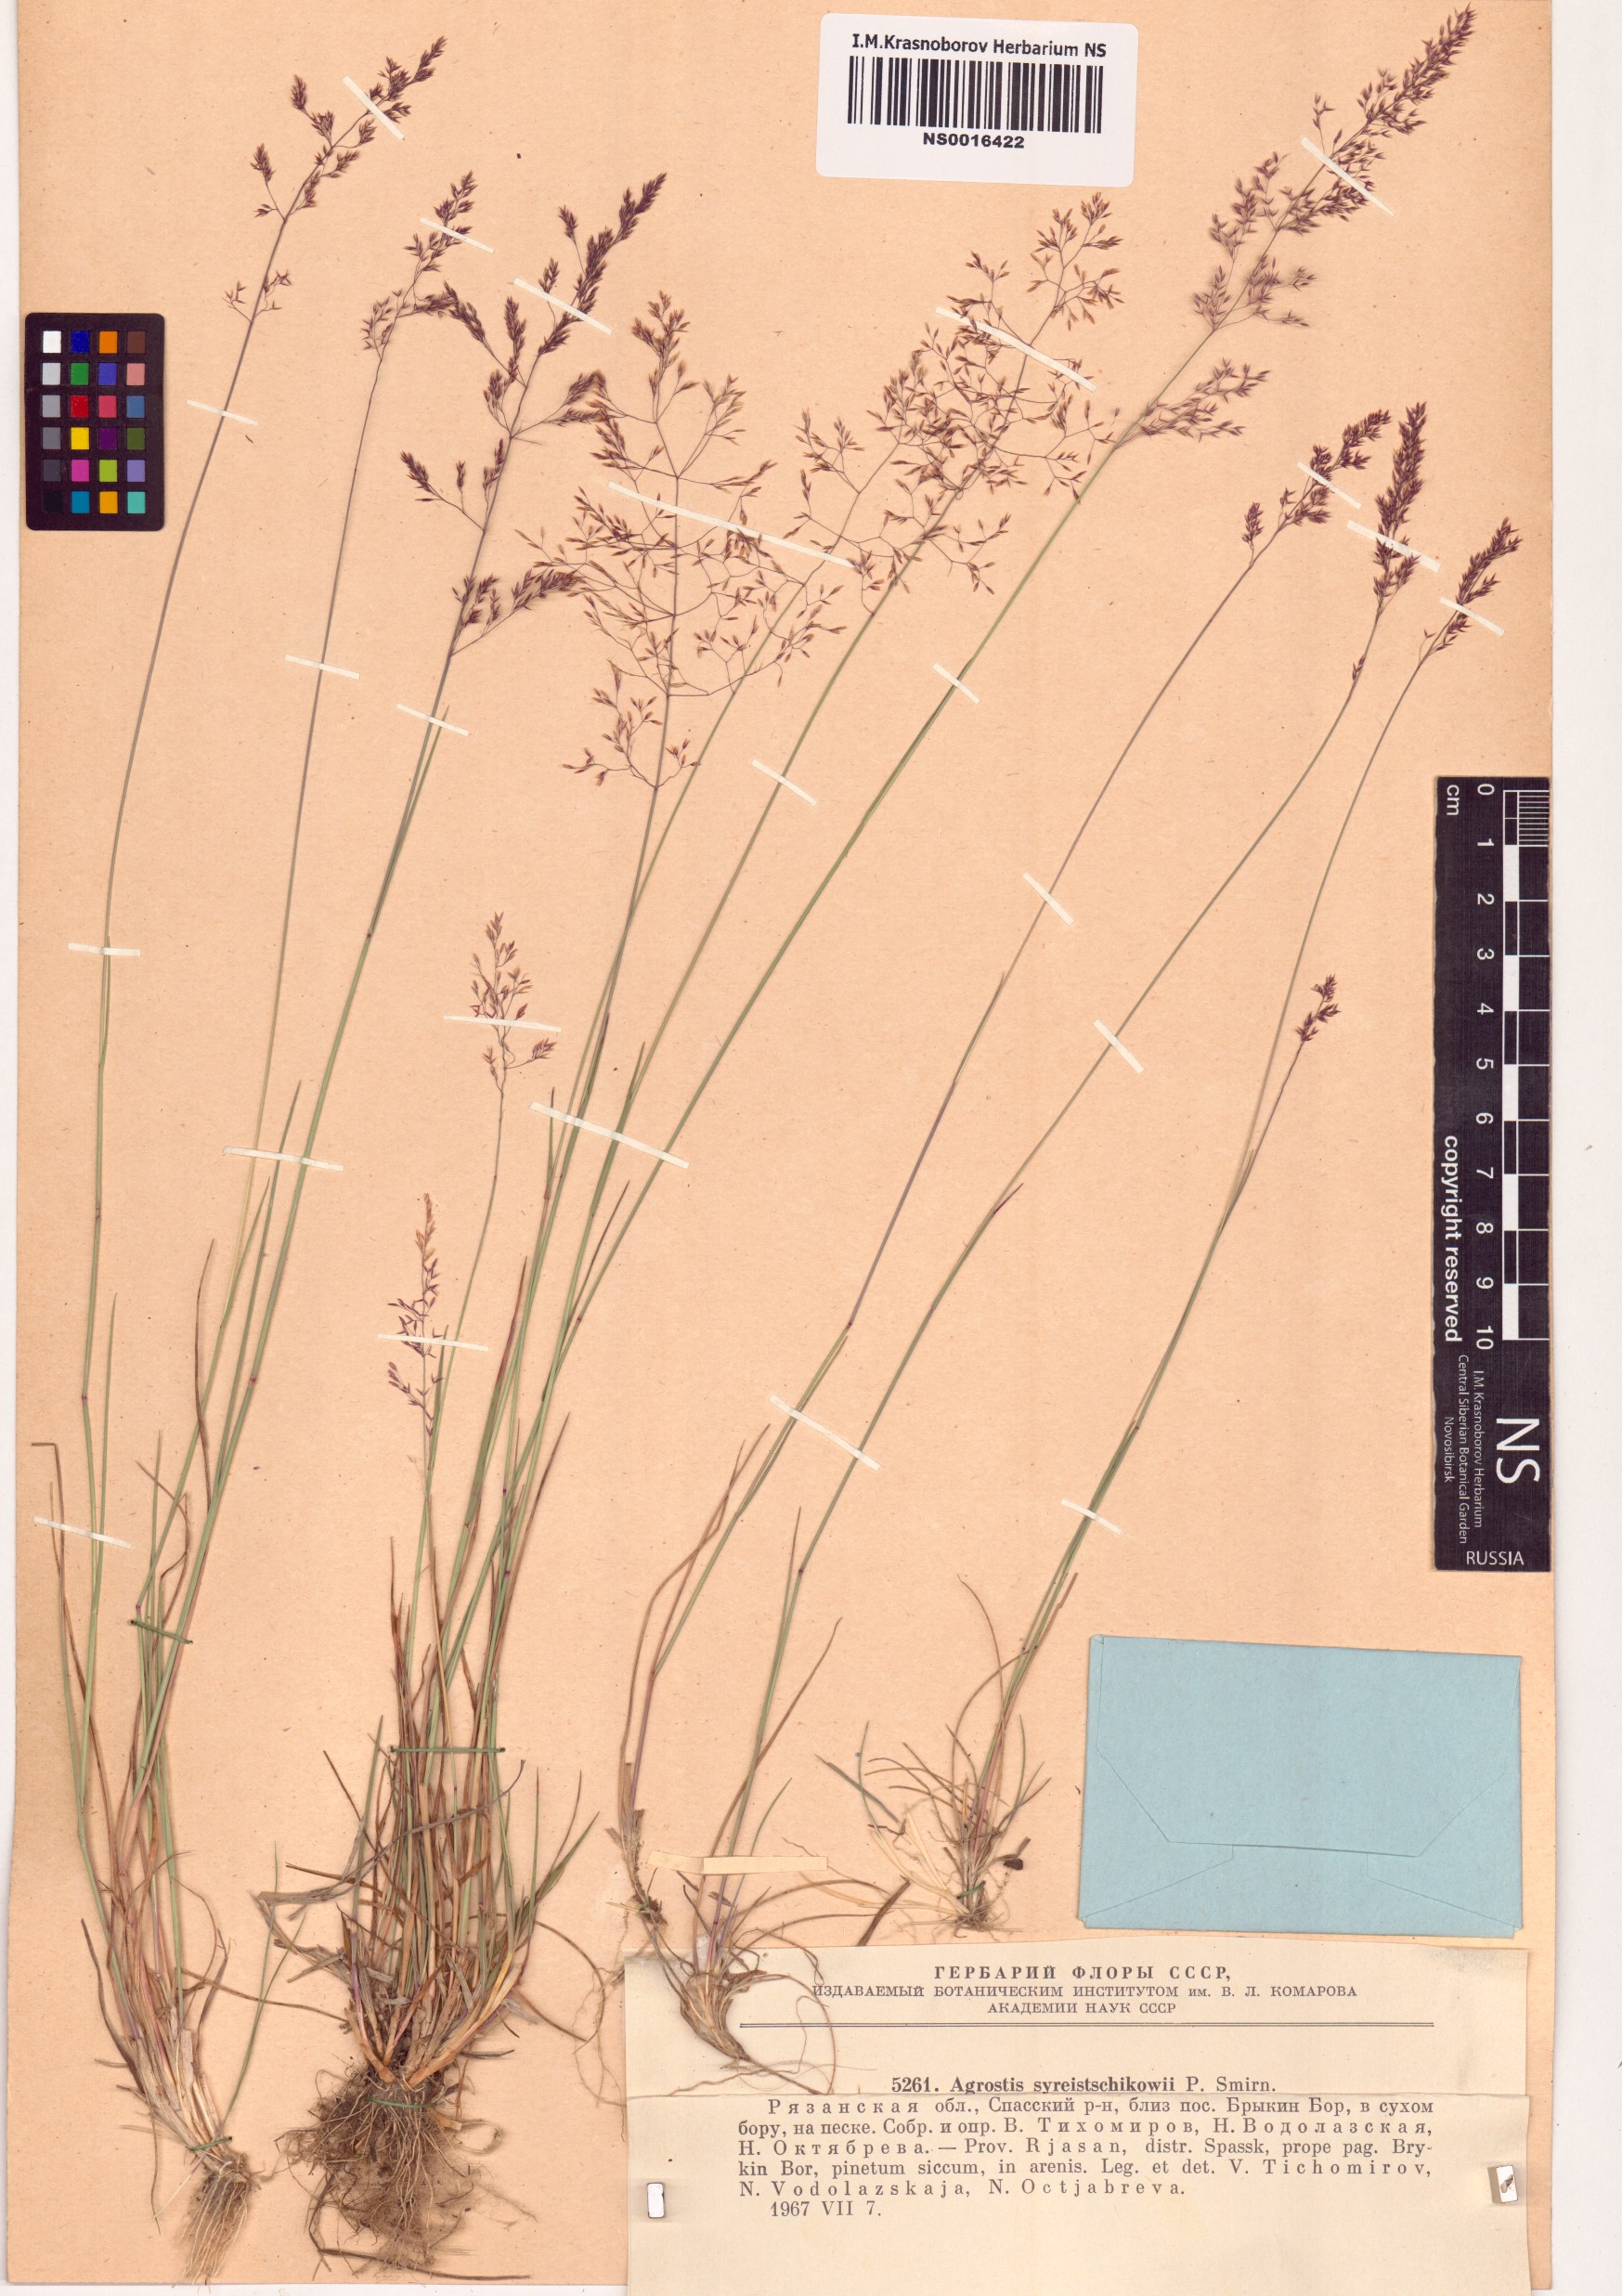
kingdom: Plantae
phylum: Tracheophyta
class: Liliopsida
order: Poales
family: Poaceae
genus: Agrostis
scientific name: Agrostis vinealis
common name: Brown bent
